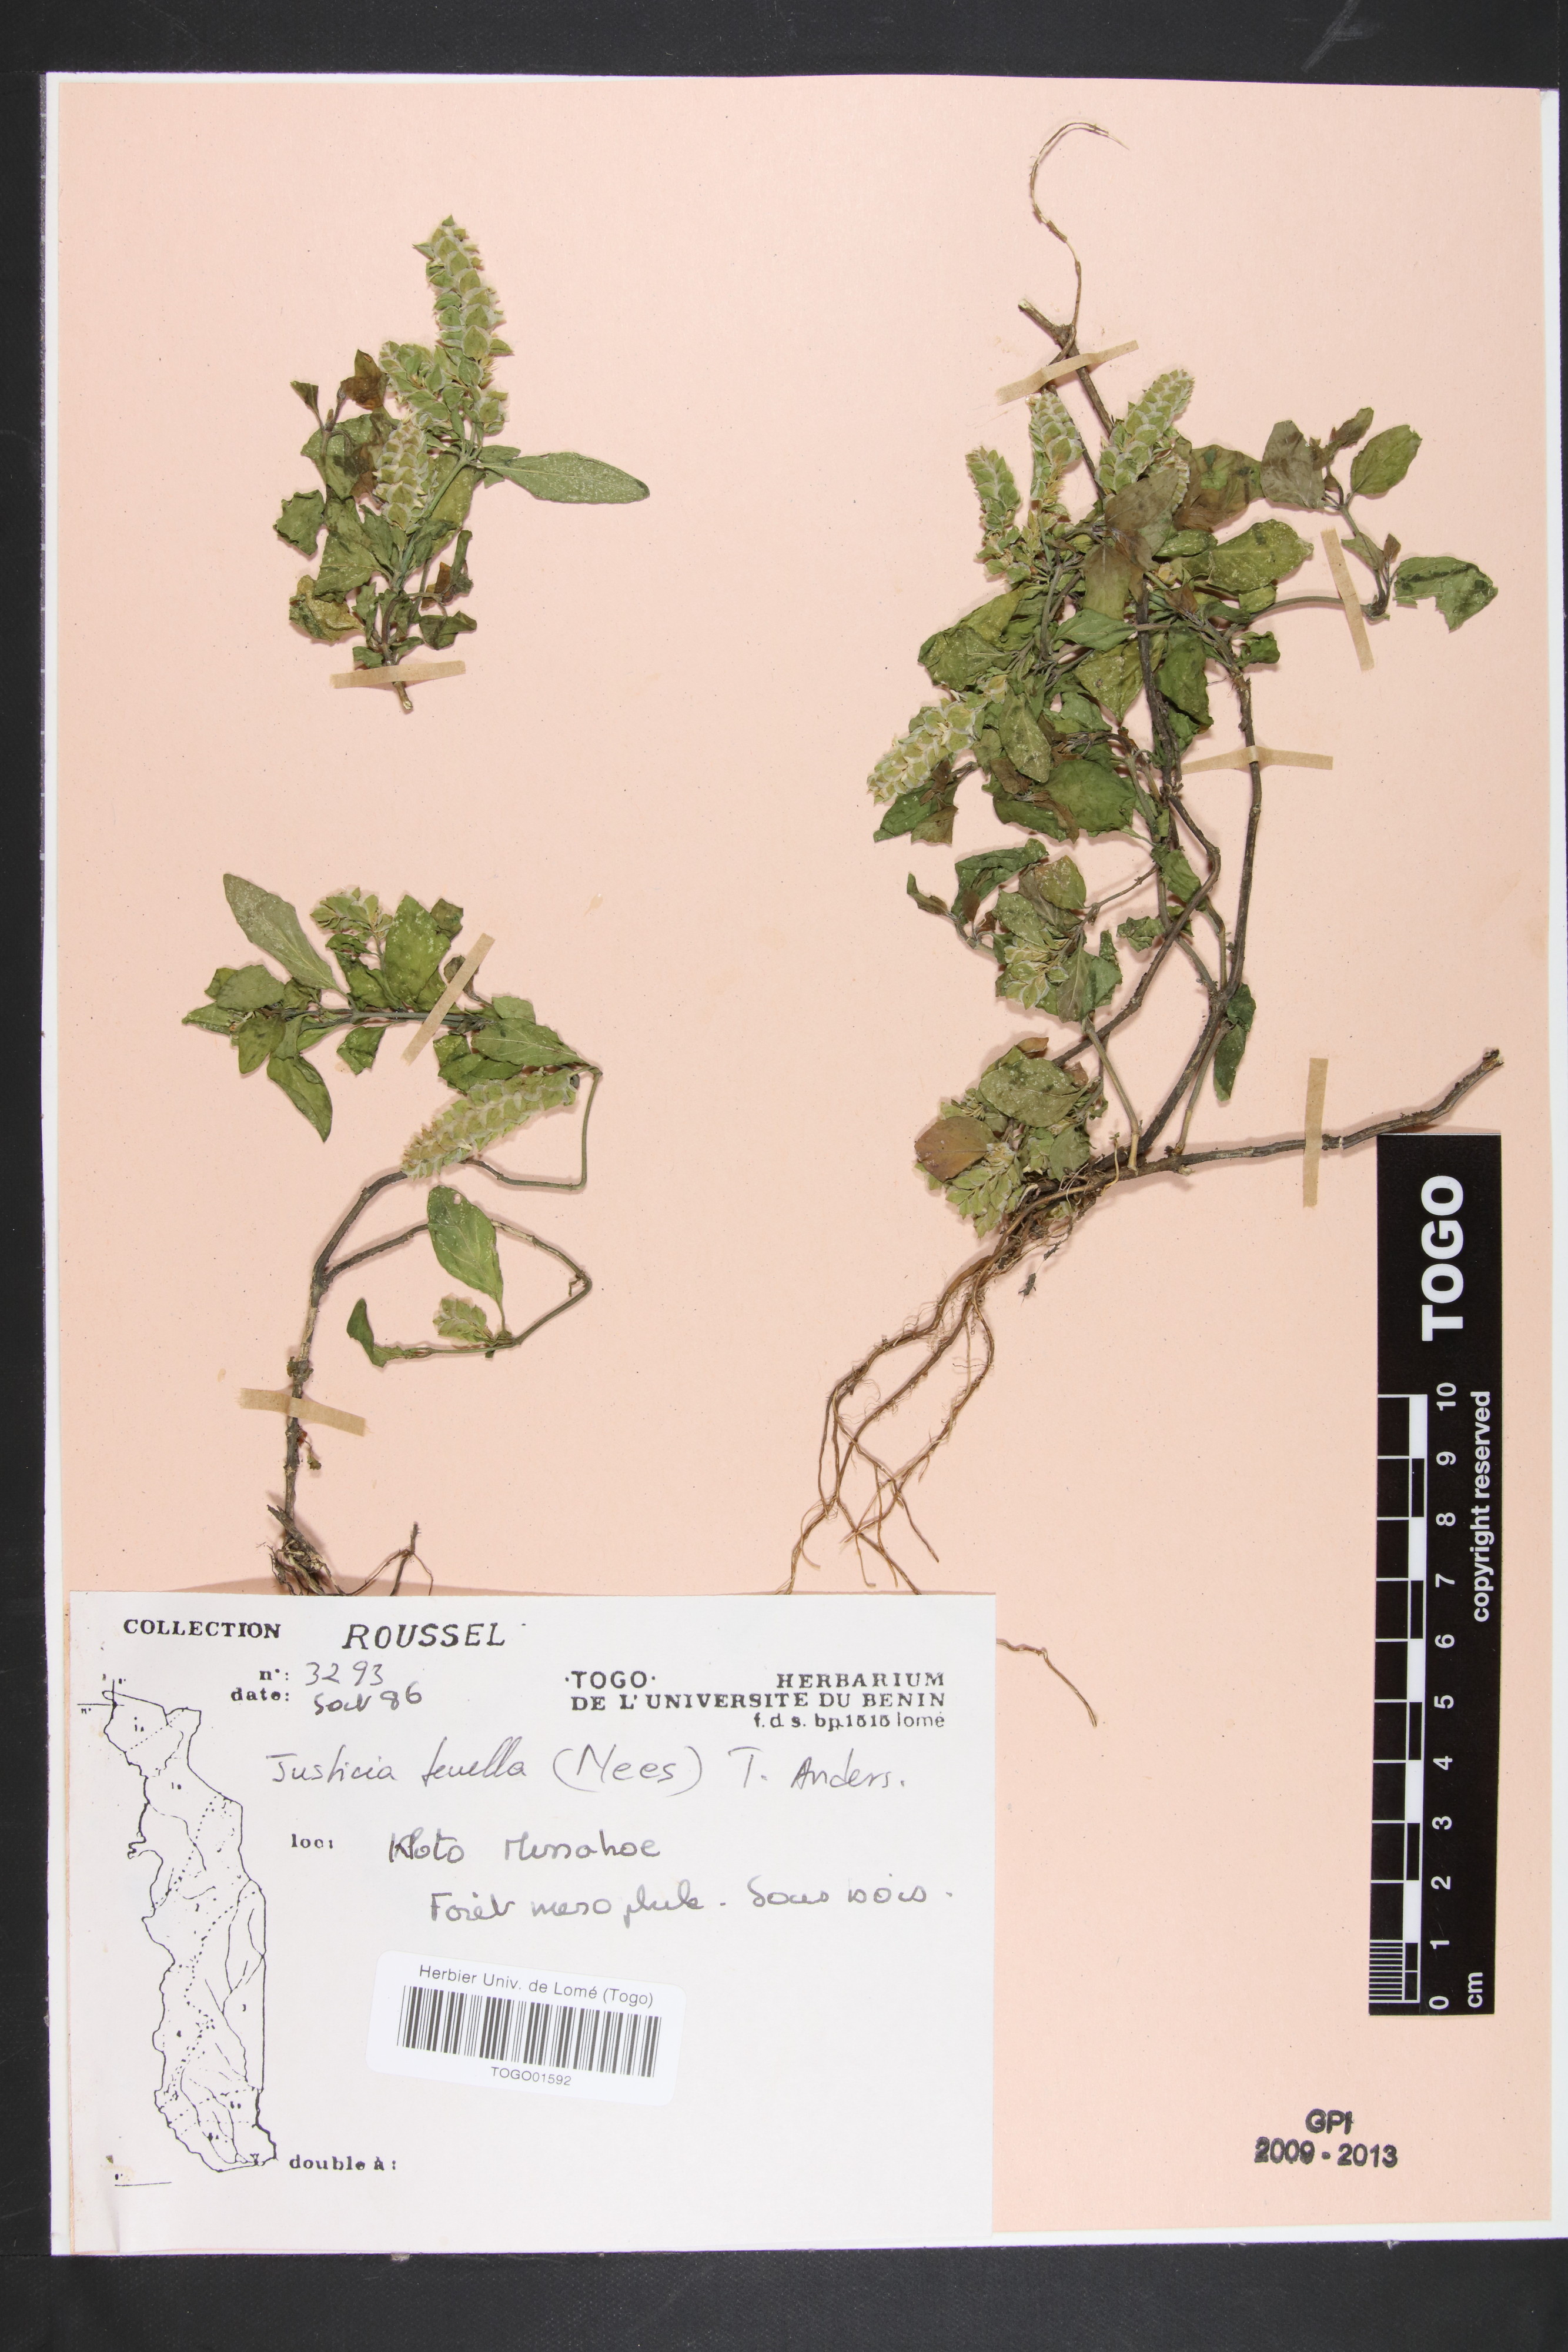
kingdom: Plantae
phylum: Tracheophyta
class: Magnoliopsida
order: Lamiales
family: Acanthaceae
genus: Anisostachya
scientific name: Anisostachya tenella
